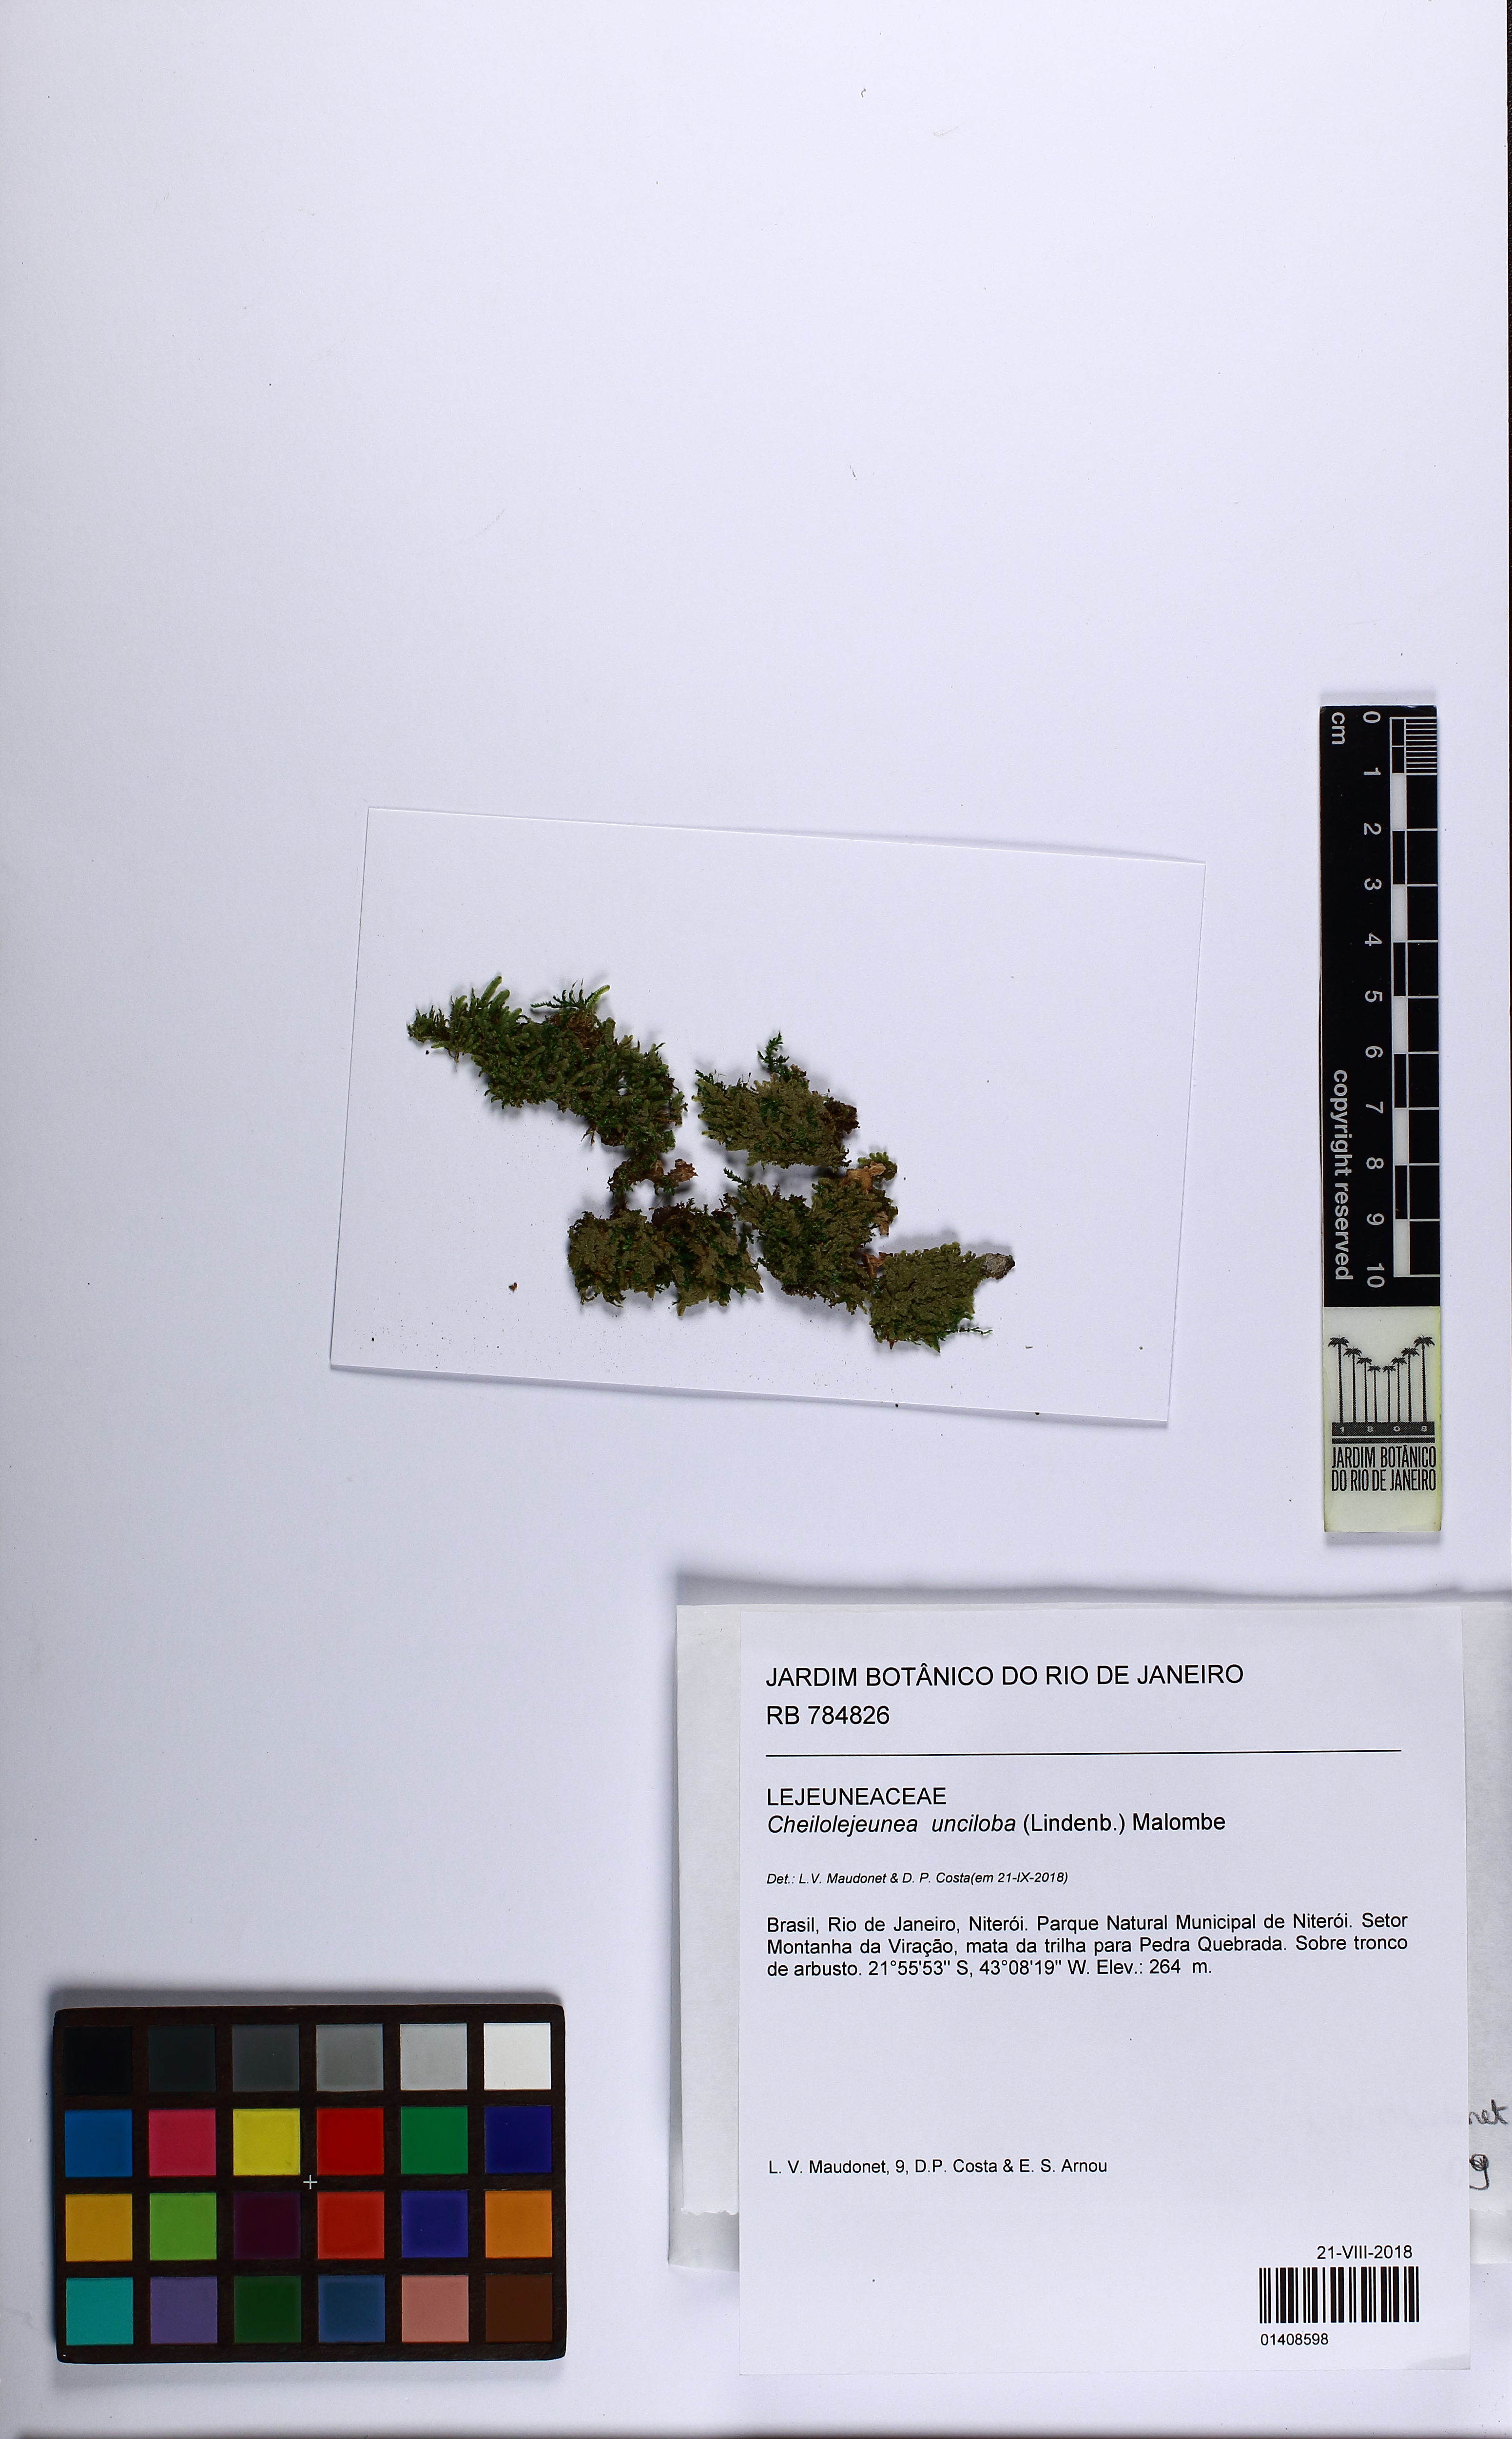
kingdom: Plantae
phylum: Marchantiophyta
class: Jungermanniopsida
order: Porellales
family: Lejeuneaceae
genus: Cheilolejeunea
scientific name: Cheilolejeunea unciloba
